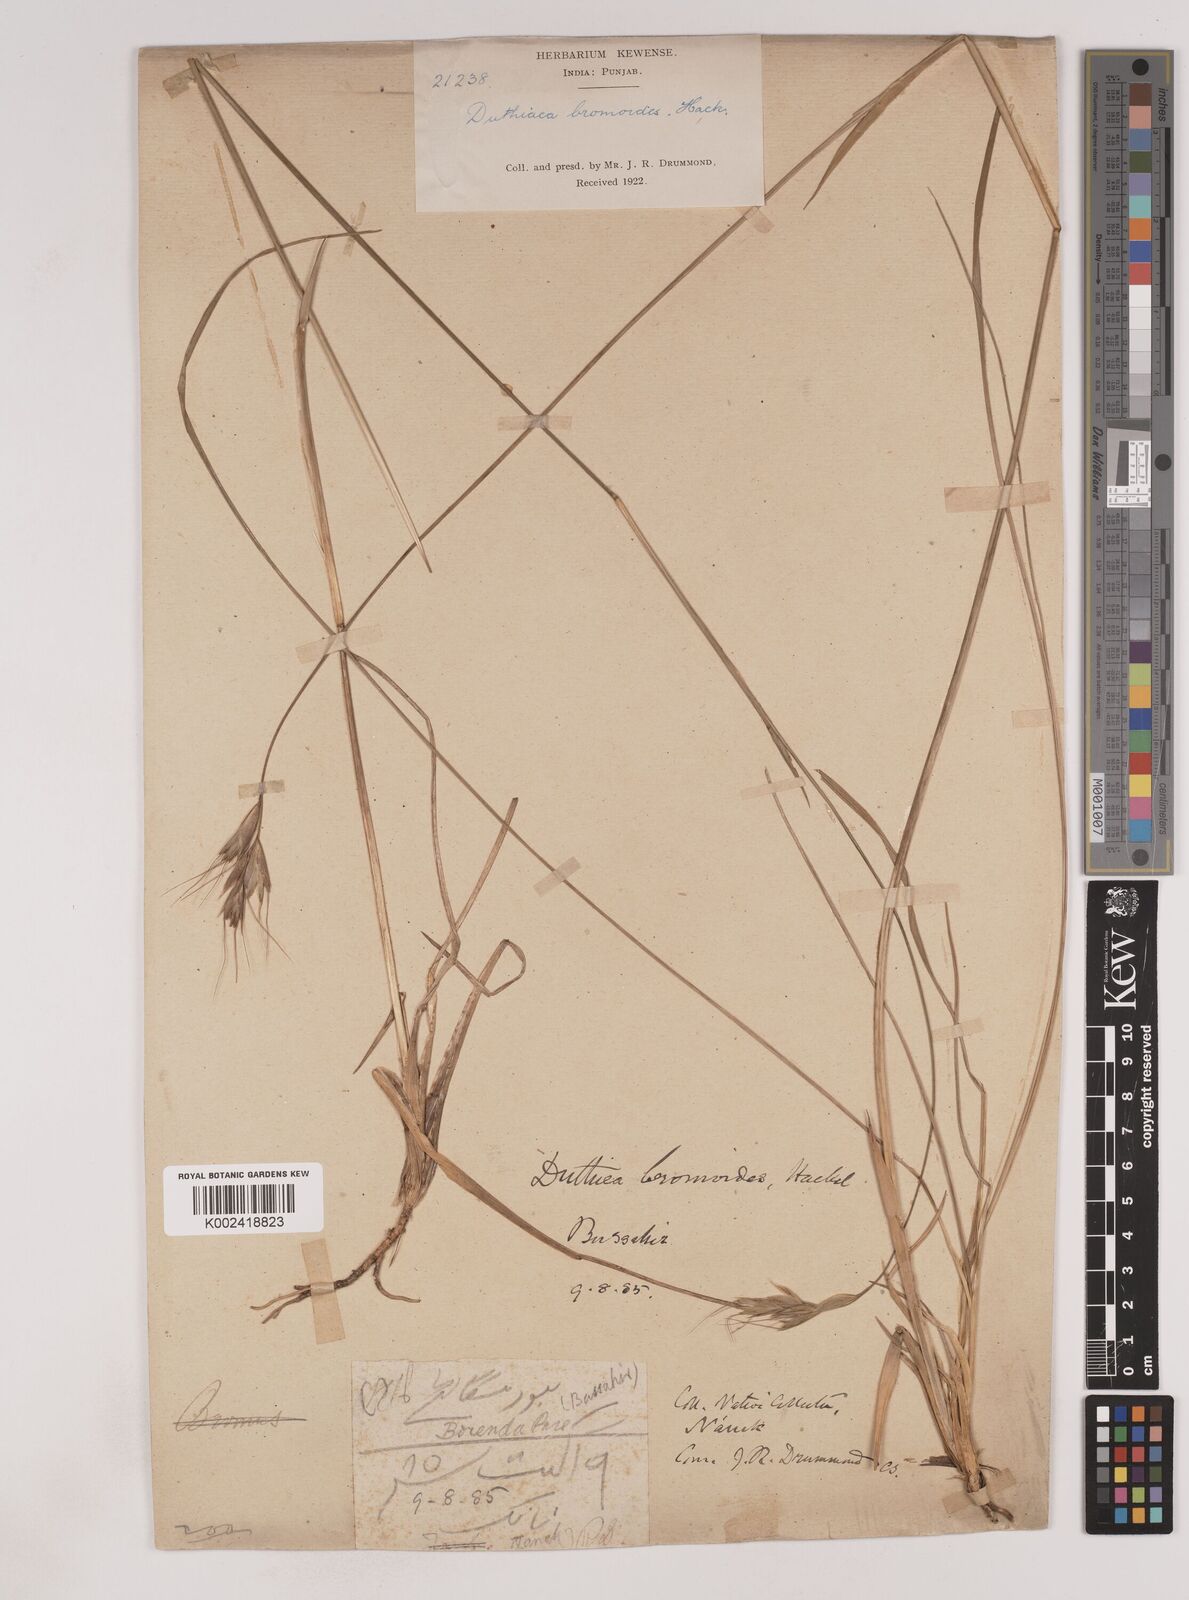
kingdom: Plantae
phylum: Tracheophyta
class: Liliopsida
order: Poales
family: Poaceae
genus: Duthiea
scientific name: Duthiea bromoides
